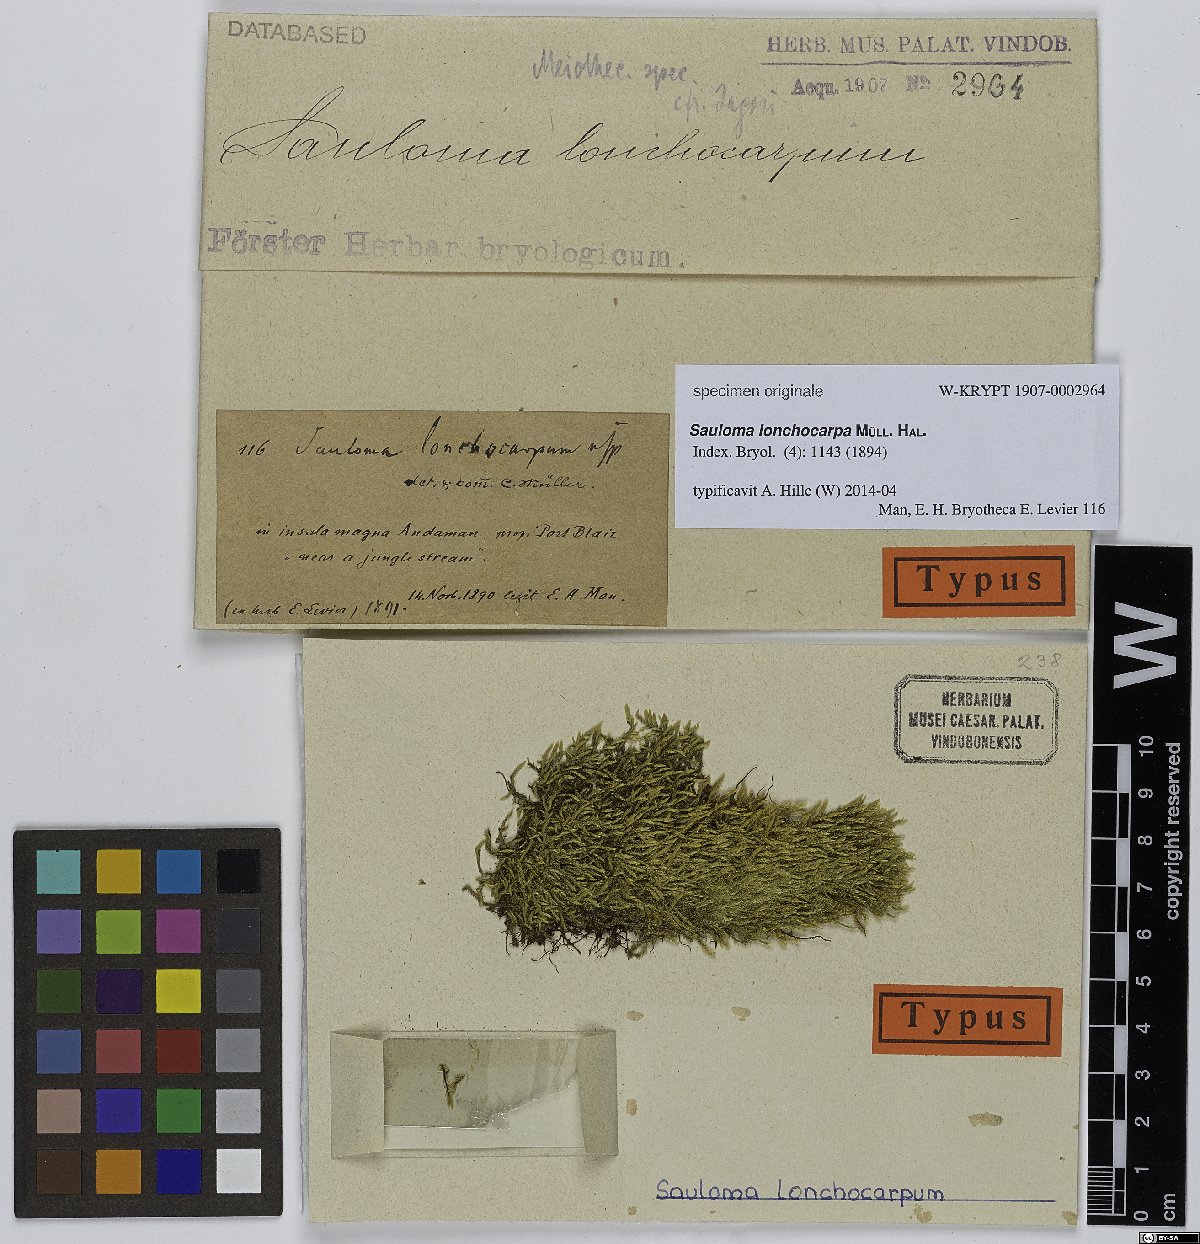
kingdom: Plantae
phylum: Bryophyta
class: Bryopsida
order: Hookeriales
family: Saulomataceae
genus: Sauloma
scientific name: Sauloma lonchocarpa
